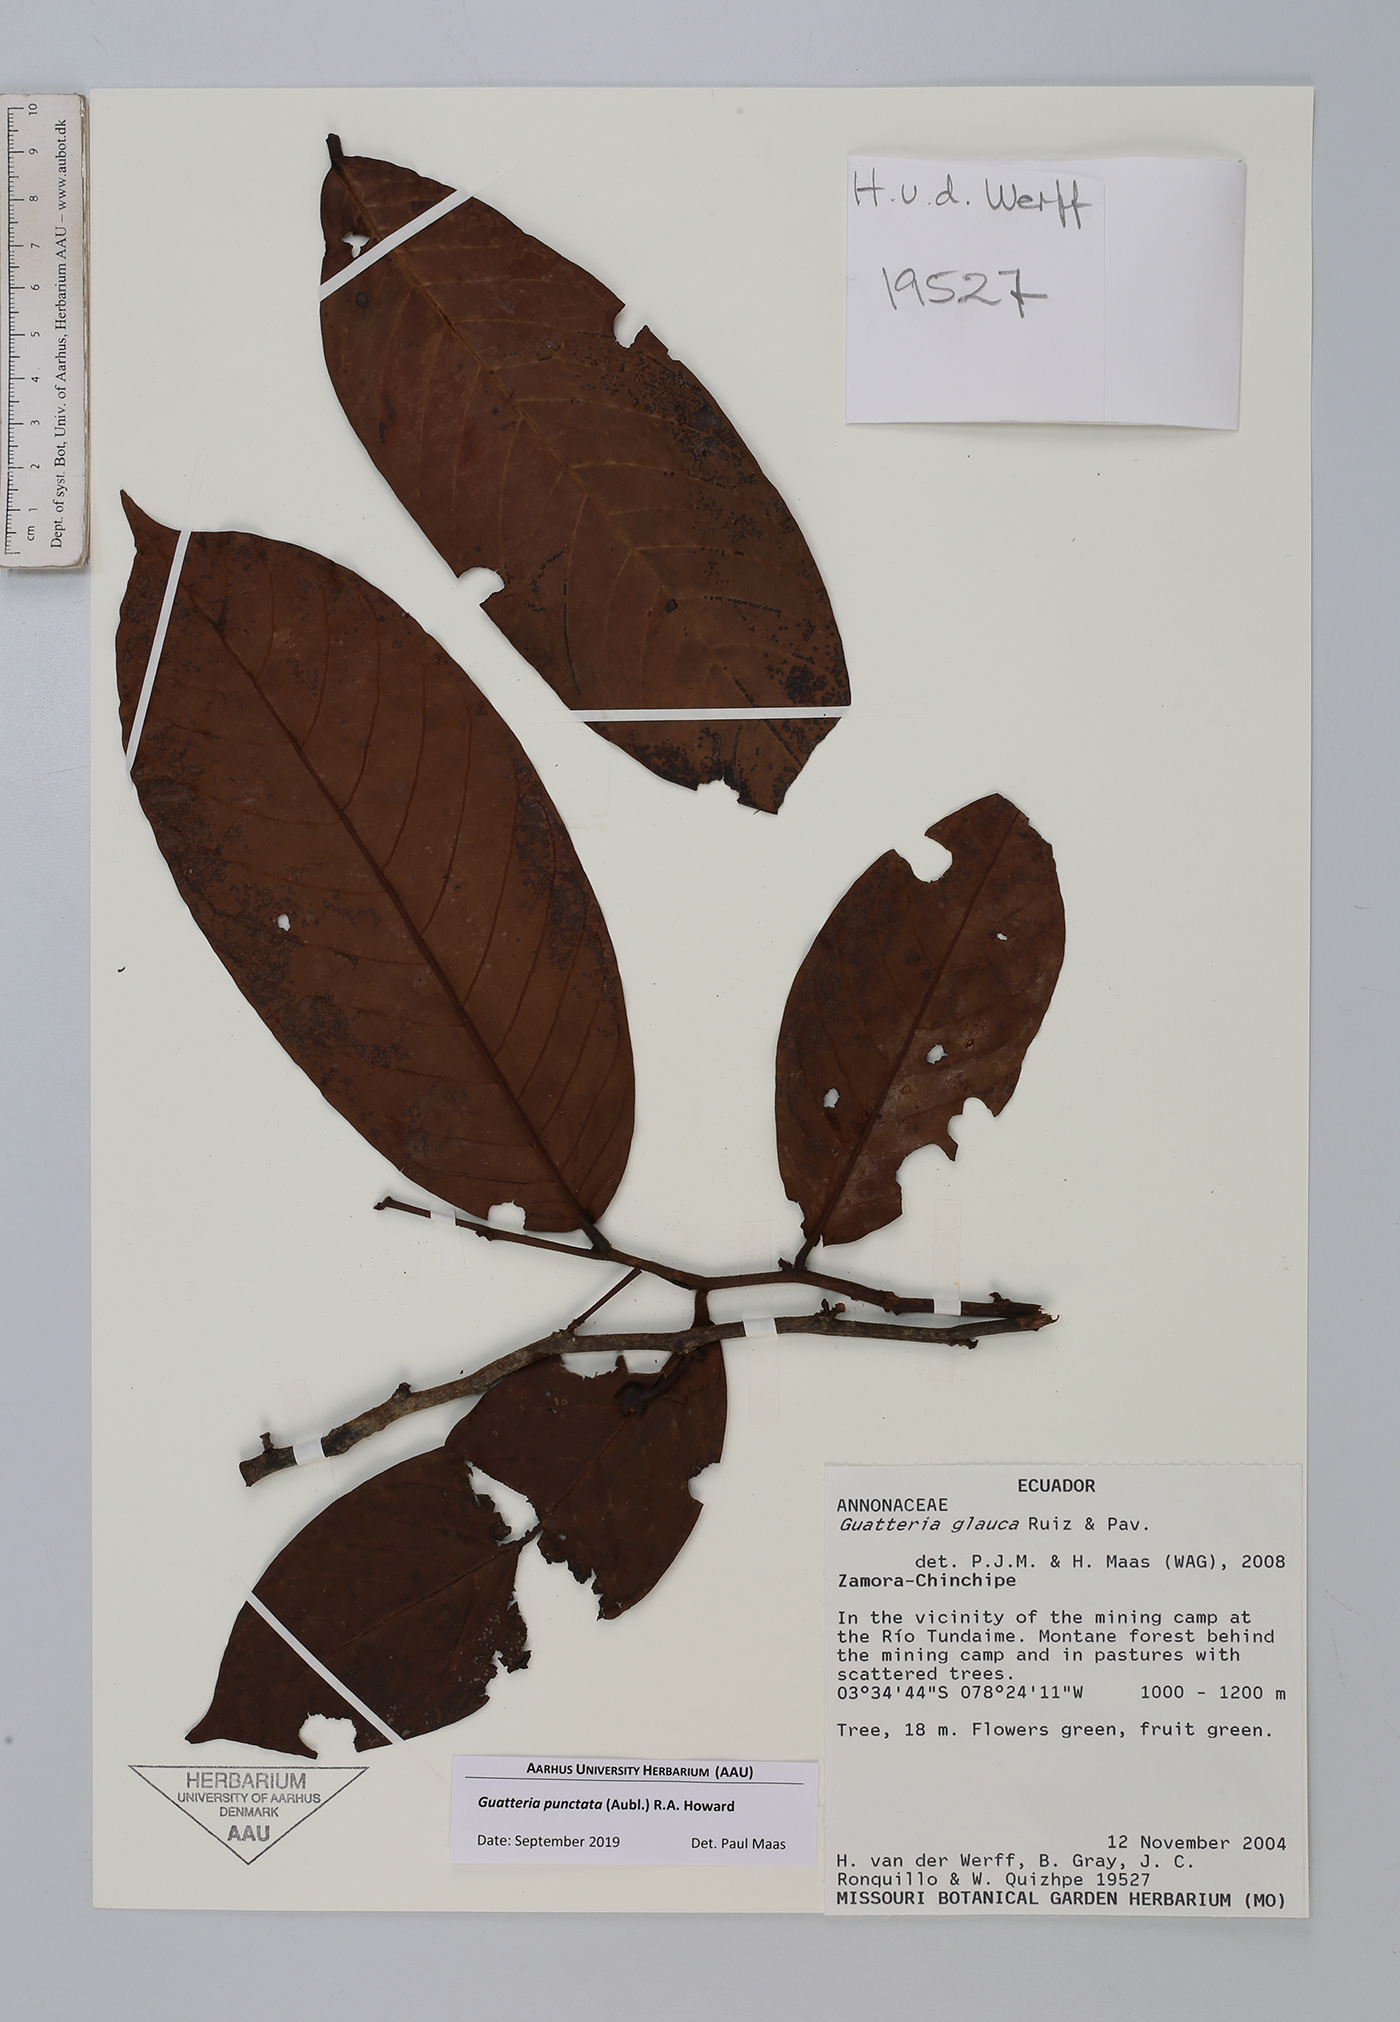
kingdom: Plantae
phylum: Tracheophyta
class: Magnoliopsida
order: Magnoliales
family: Annonaceae
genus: Guatteria
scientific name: Guatteria punctata
